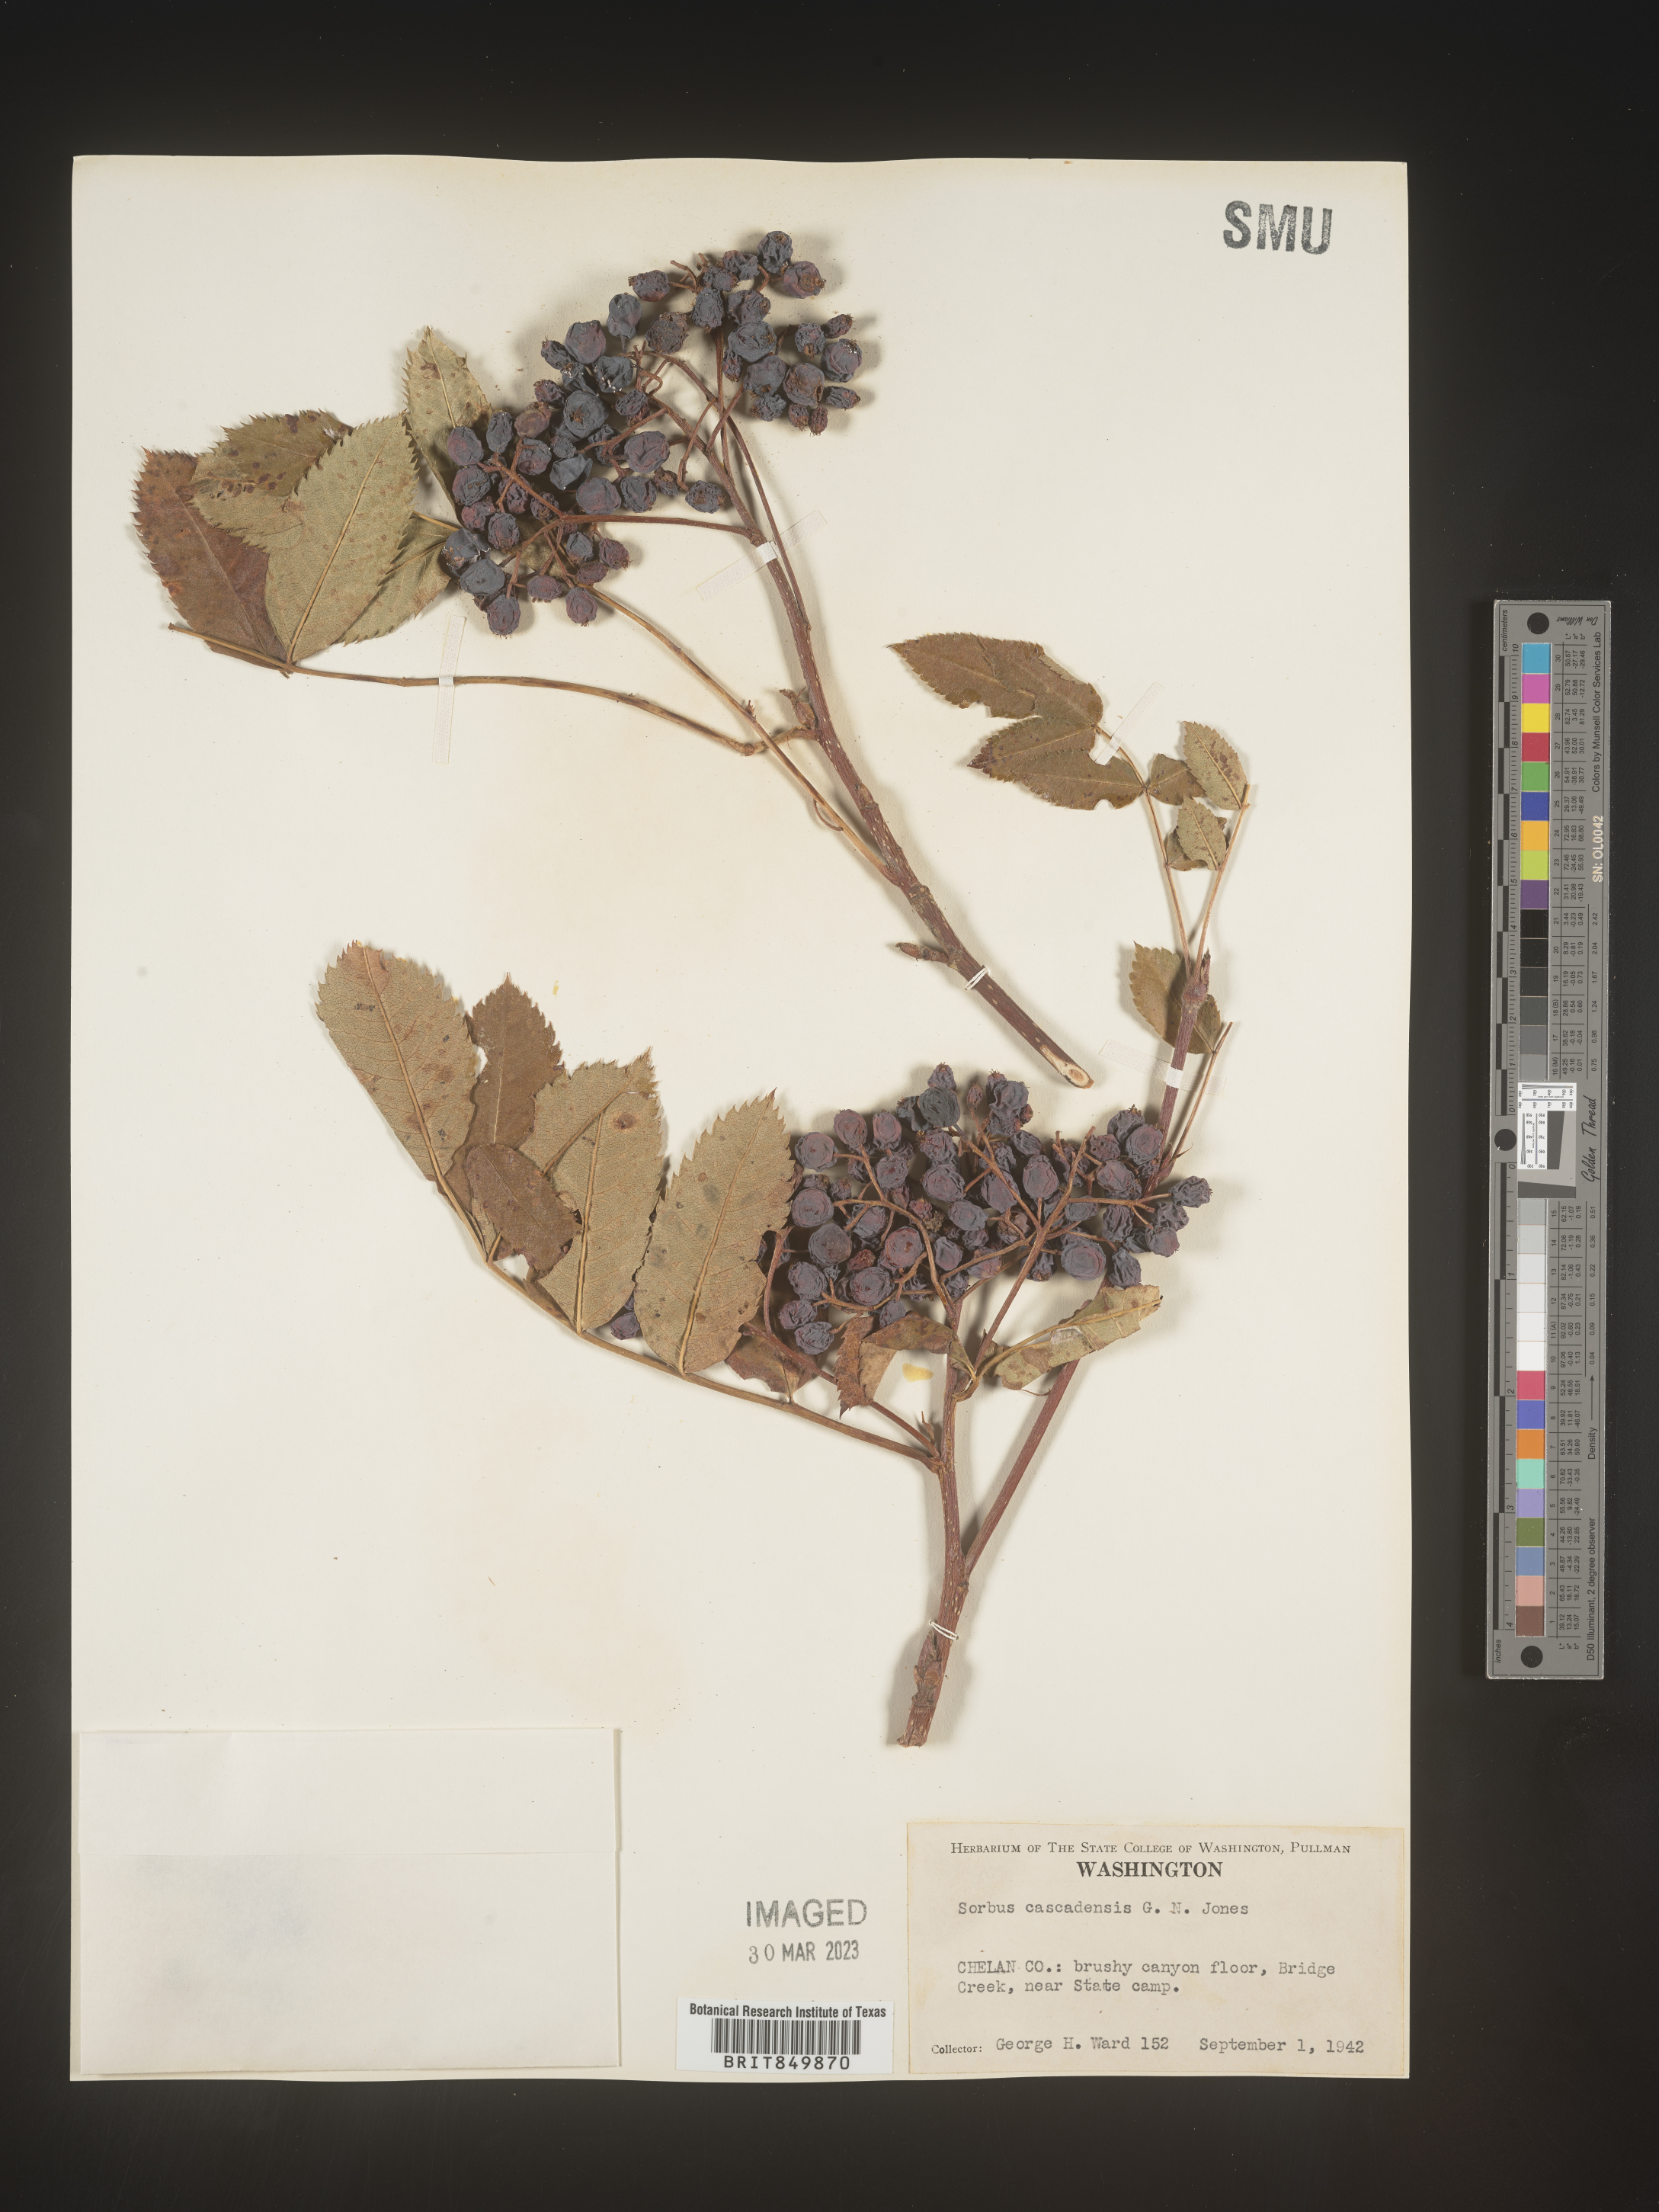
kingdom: Plantae
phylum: Tracheophyta
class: Magnoliopsida
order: Rosales
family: Rosaceae
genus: Sorbus
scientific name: Sorbus
